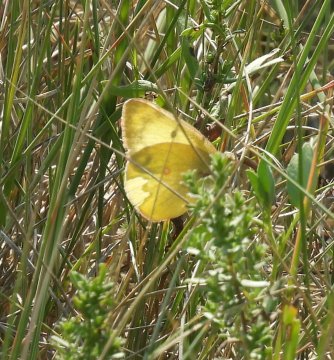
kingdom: Animalia
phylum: Arthropoda
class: Insecta
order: Lepidoptera
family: Pieridae
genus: Colias
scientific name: Colias christina
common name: Christina Sulphur
